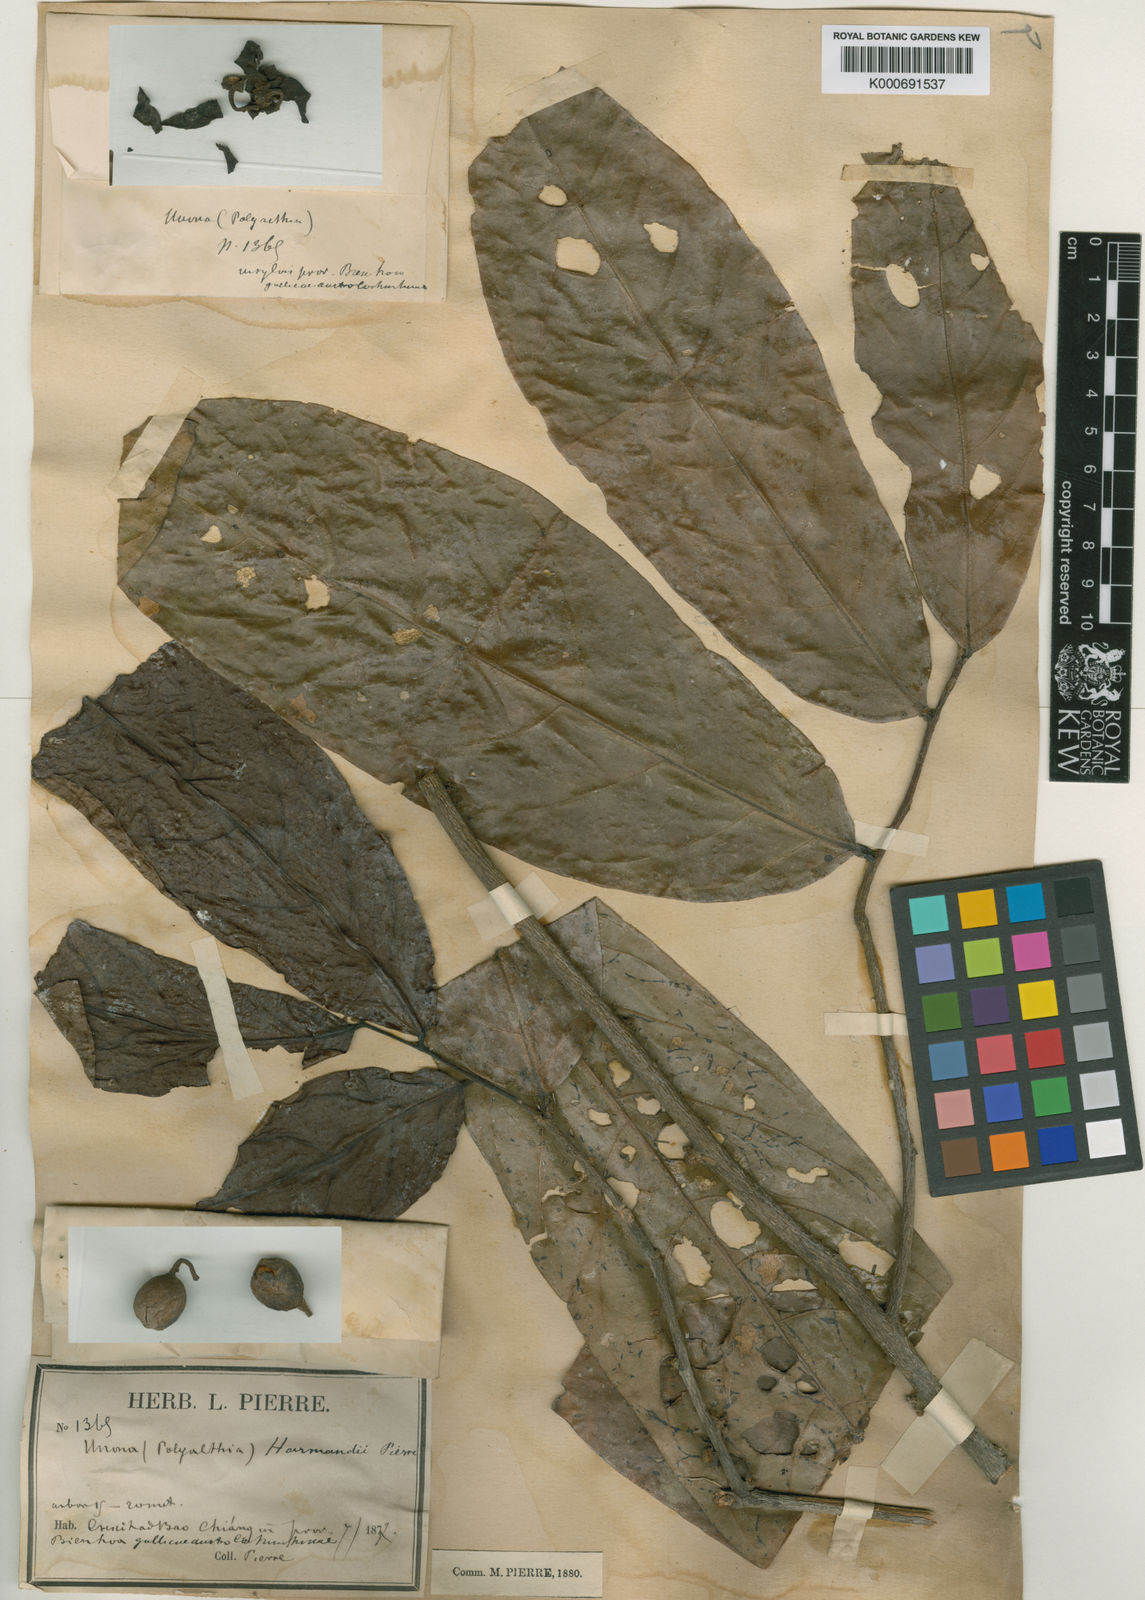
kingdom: Plantae
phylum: Tracheophyta
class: Magnoliopsida
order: Magnoliales
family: Annonaceae
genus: Polyalthia
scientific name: Polyalthia harmandii
